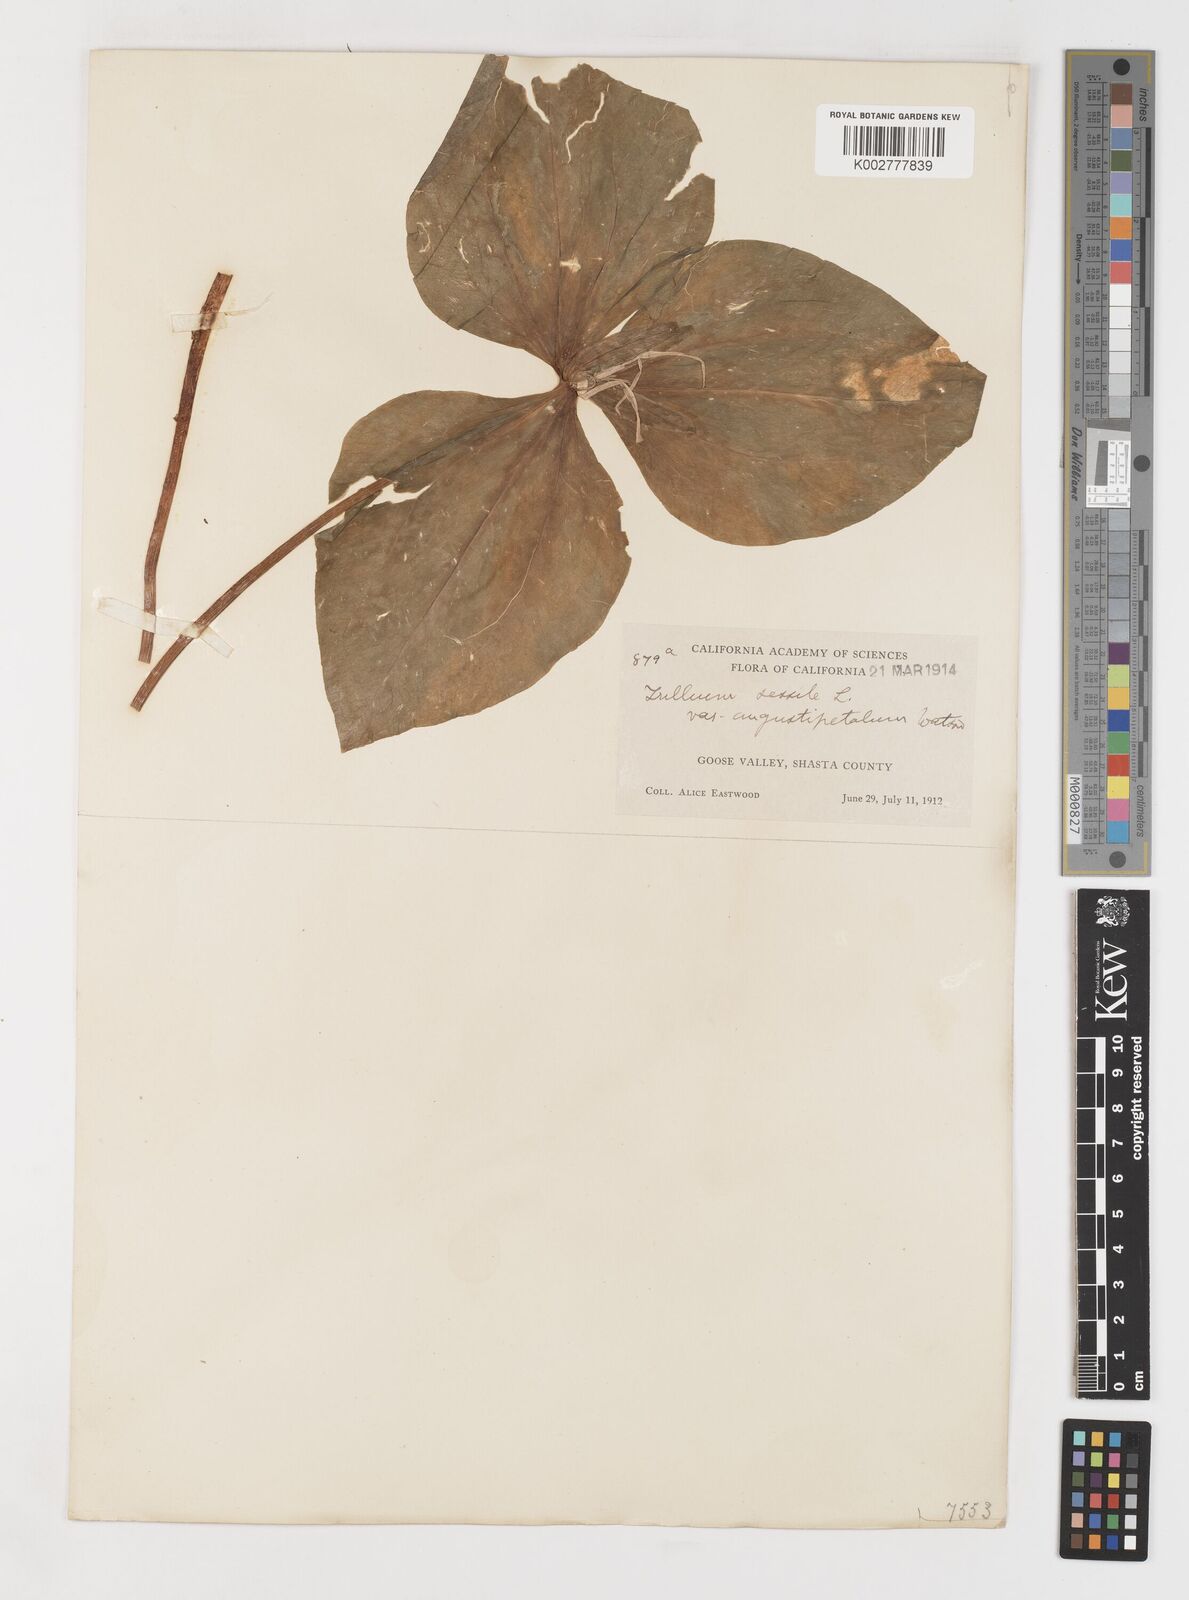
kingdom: Plantae
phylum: Tracheophyta
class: Liliopsida
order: Liliales
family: Melanthiaceae
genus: Trillium
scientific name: Trillium chloropetalum
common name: Giant trillium
